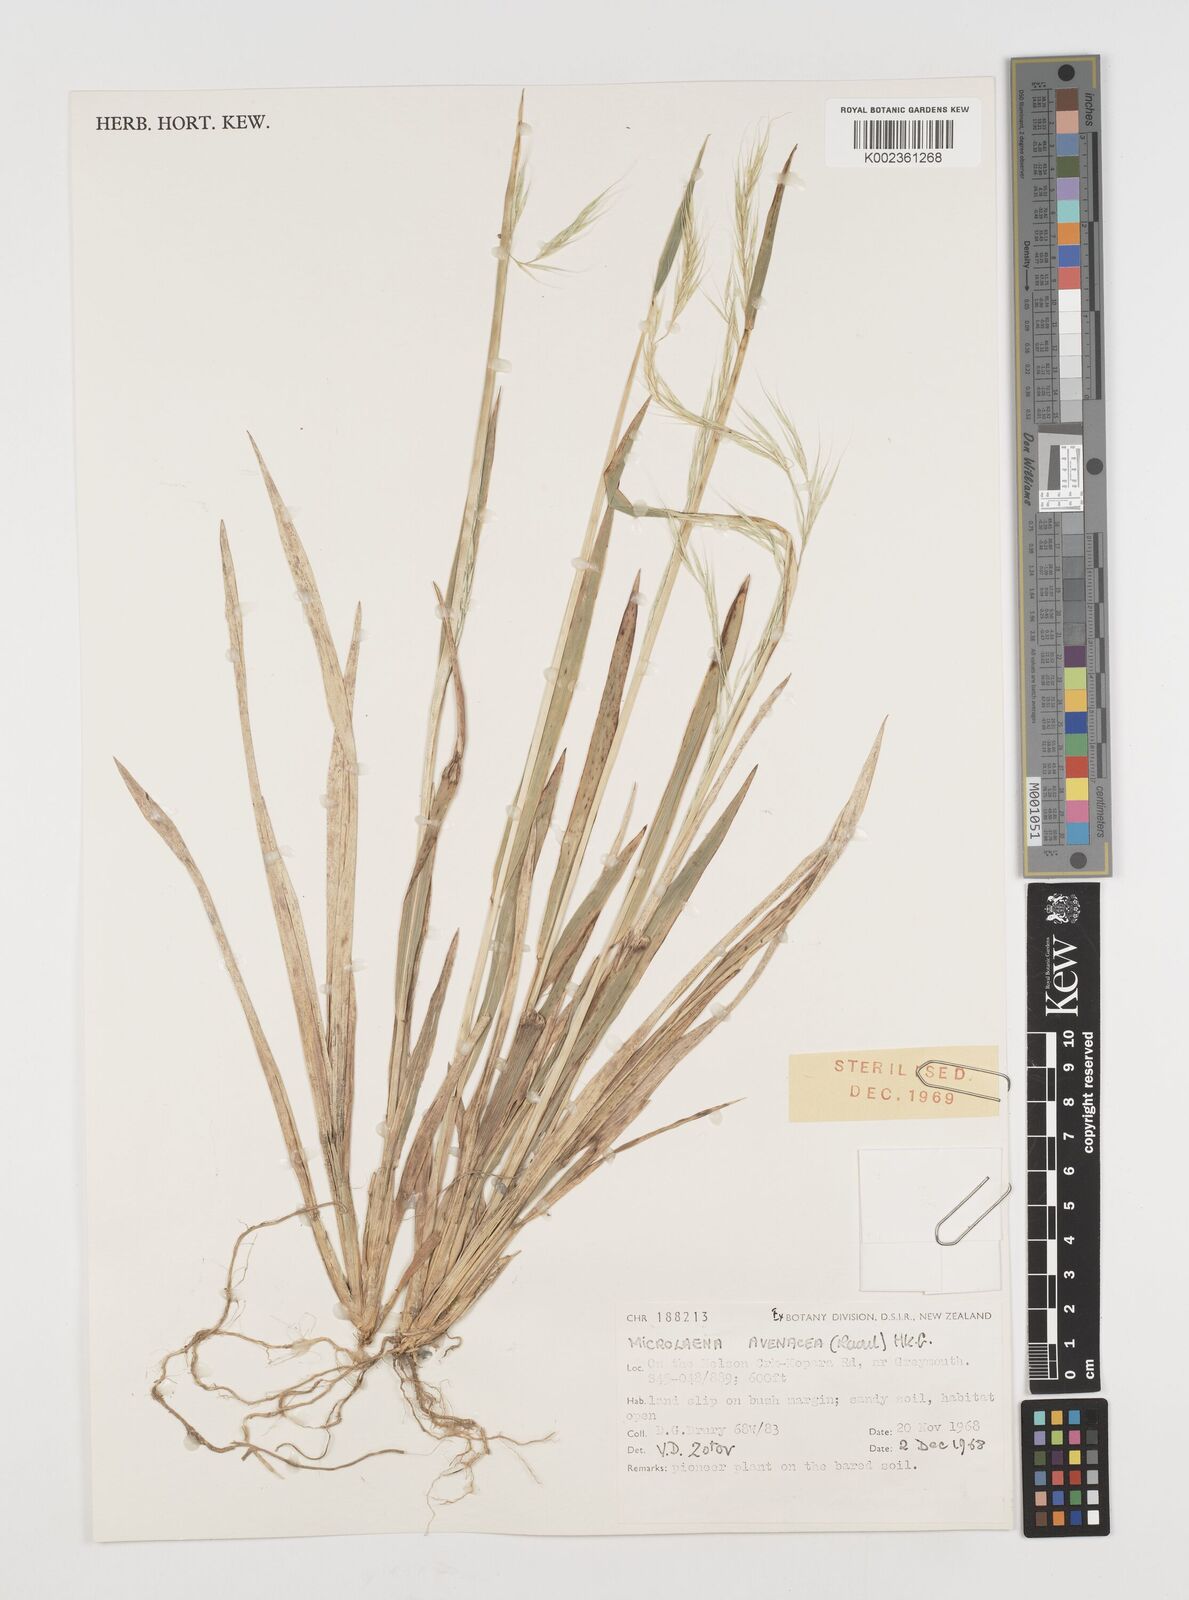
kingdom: Plantae
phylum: Tracheophyta
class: Liliopsida
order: Poales
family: Poaceae
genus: Ehrharta
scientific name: Ehrharta diplax
